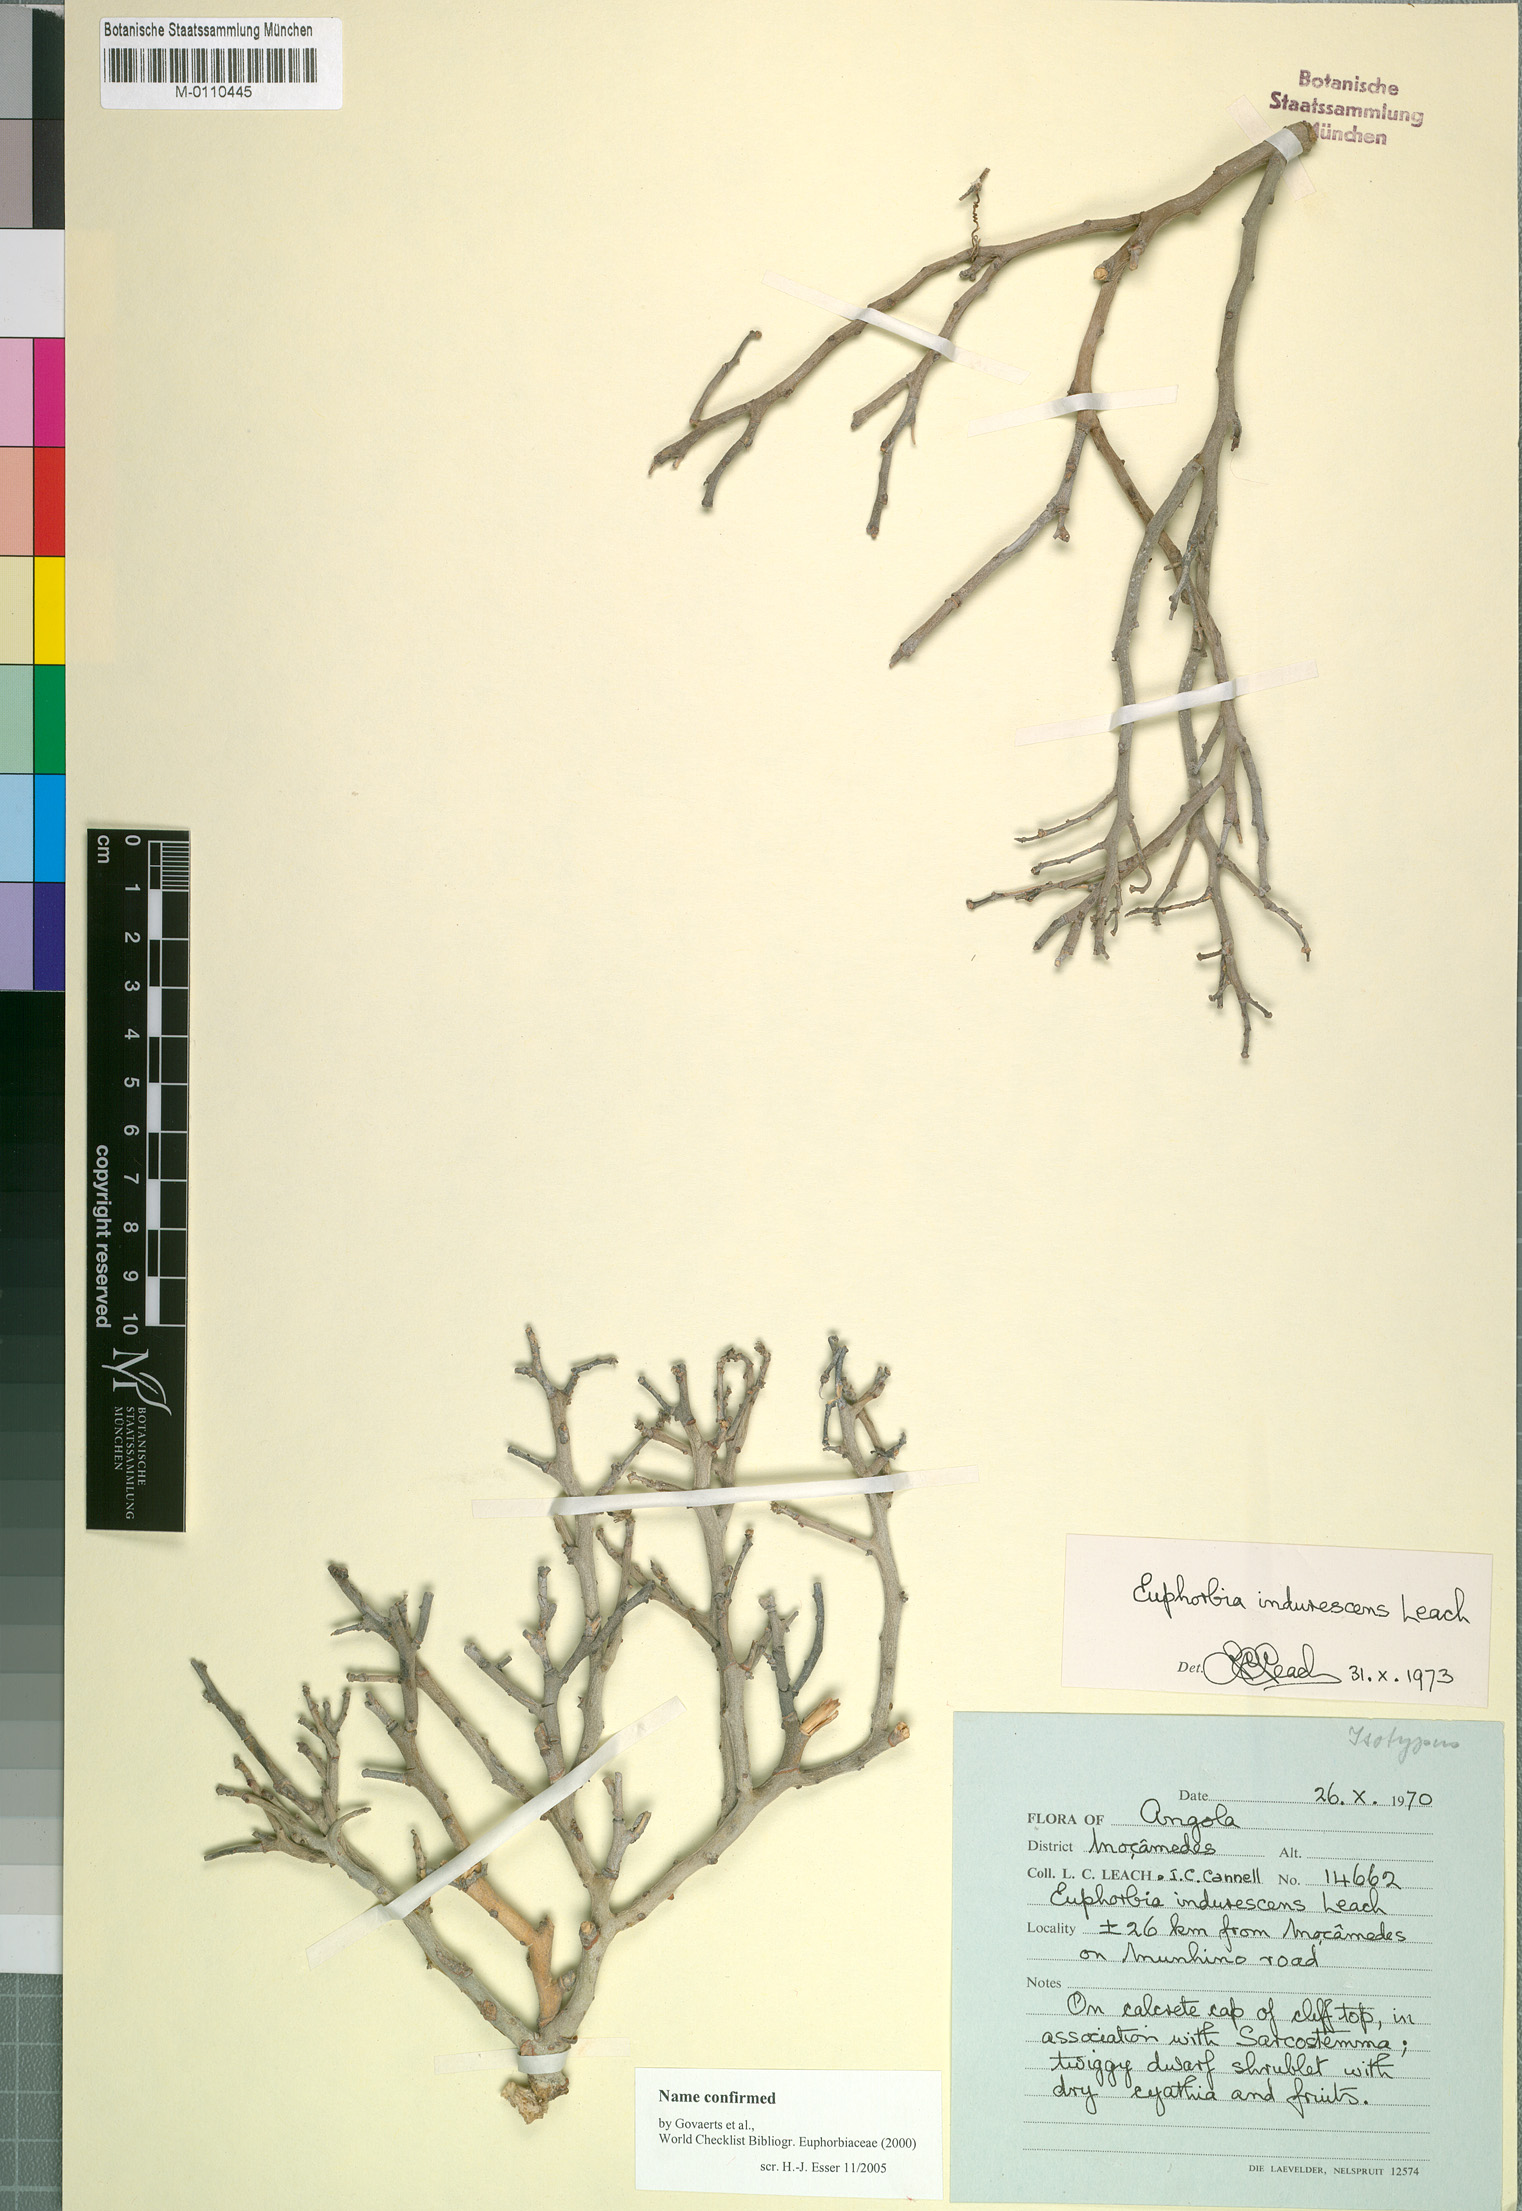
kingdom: Plantae
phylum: Tracheophyta
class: Magnoliopsida
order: Malpighiales
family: Euphorbiaceae
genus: Euphorbia
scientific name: Euphorbia indurescens
